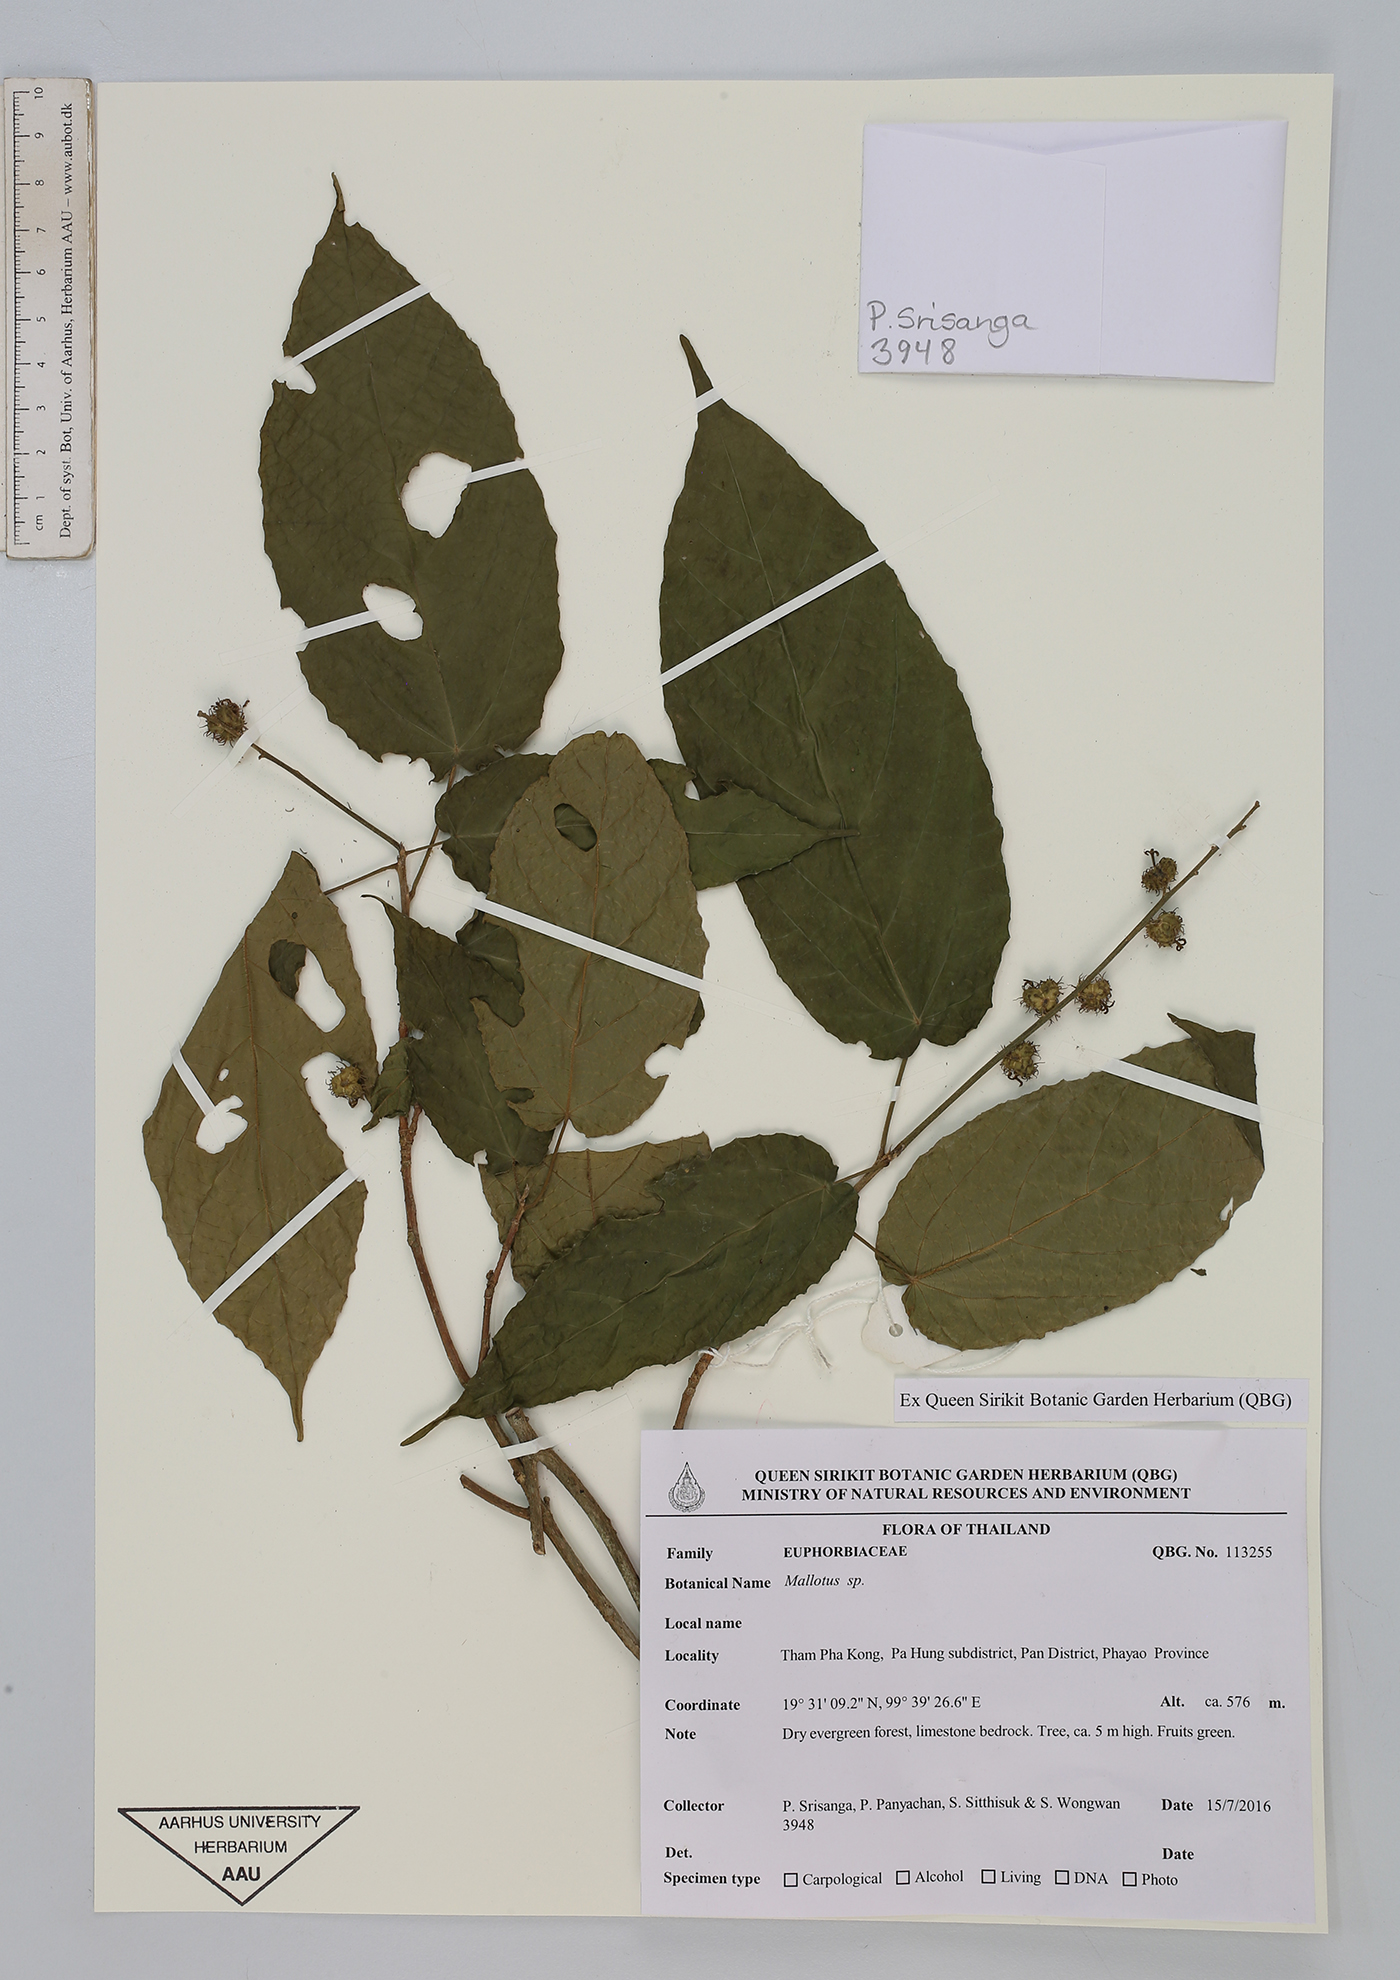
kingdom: Plantae
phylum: Tracheophyta
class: Magnoliopsida
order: Malpighiales
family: Euphorbiaceae
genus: Mallotus
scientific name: Mallotus
